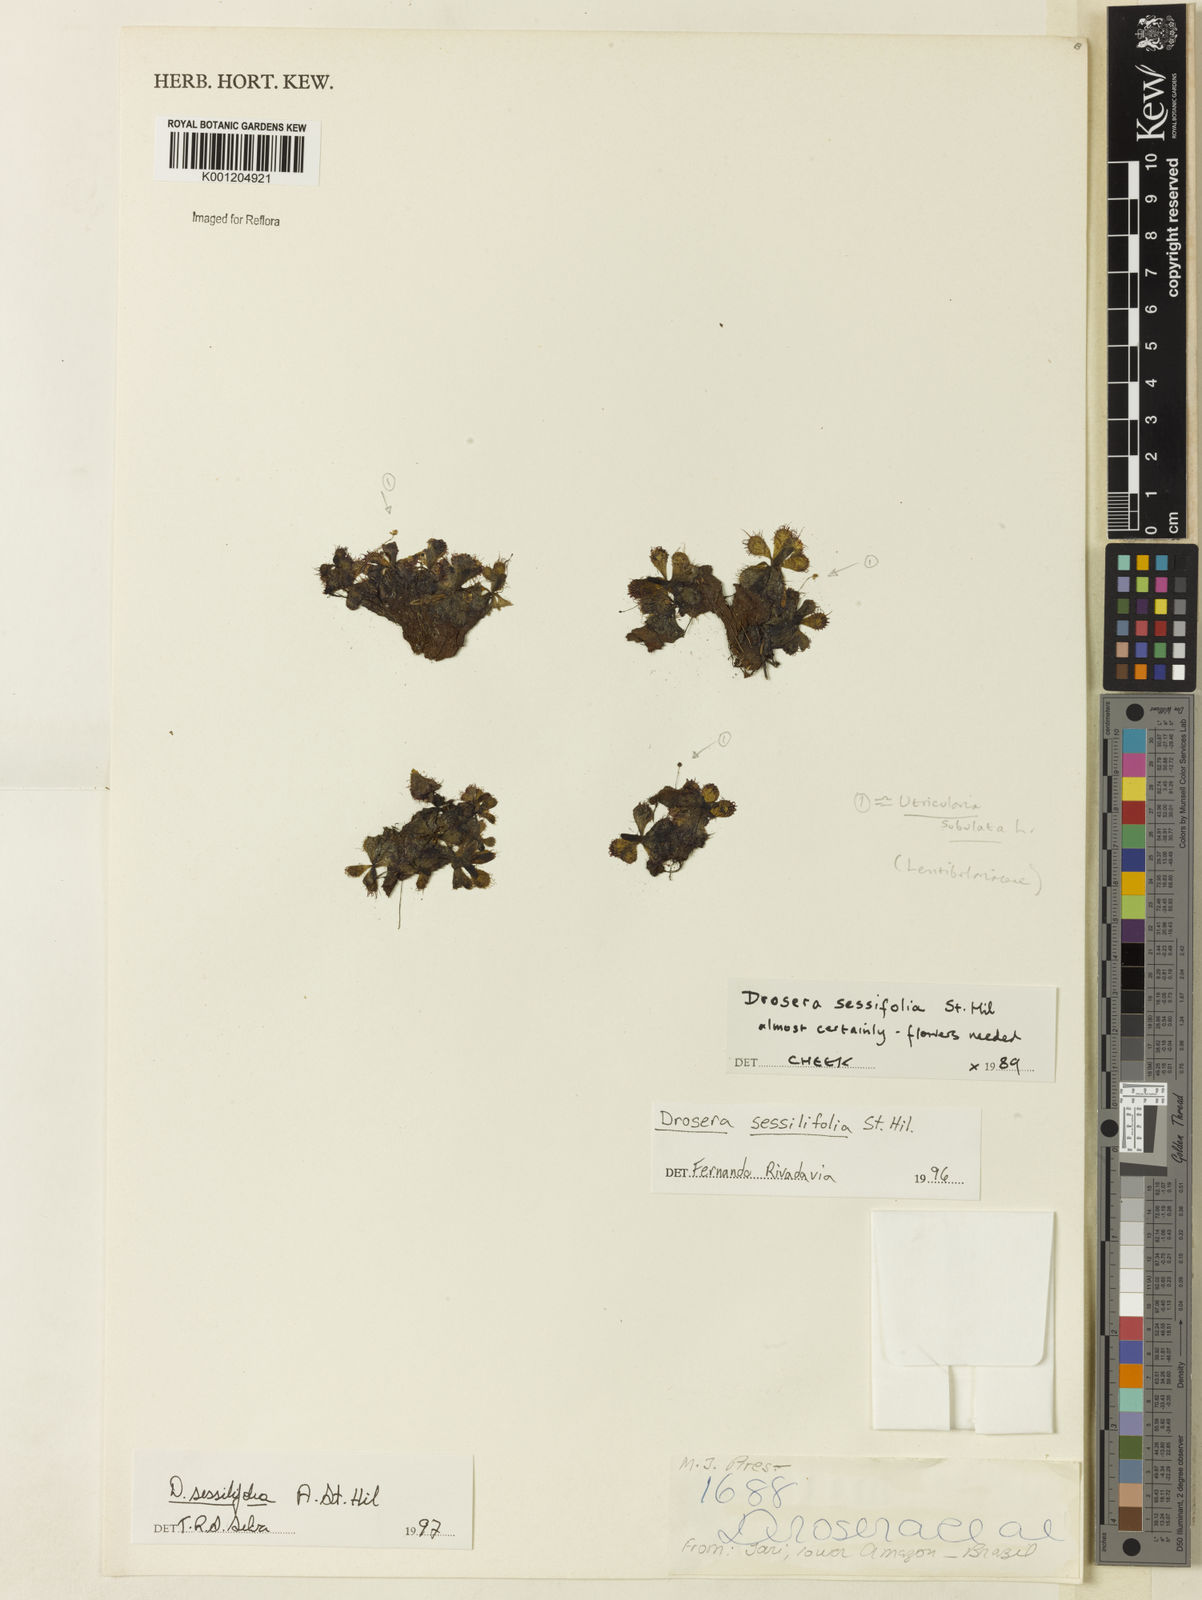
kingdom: Plantae
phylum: Tracheophyta
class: Magnoliopsida
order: Caryophyllales
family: Droseraceae
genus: Drosera
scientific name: Drosera sessilifolia
